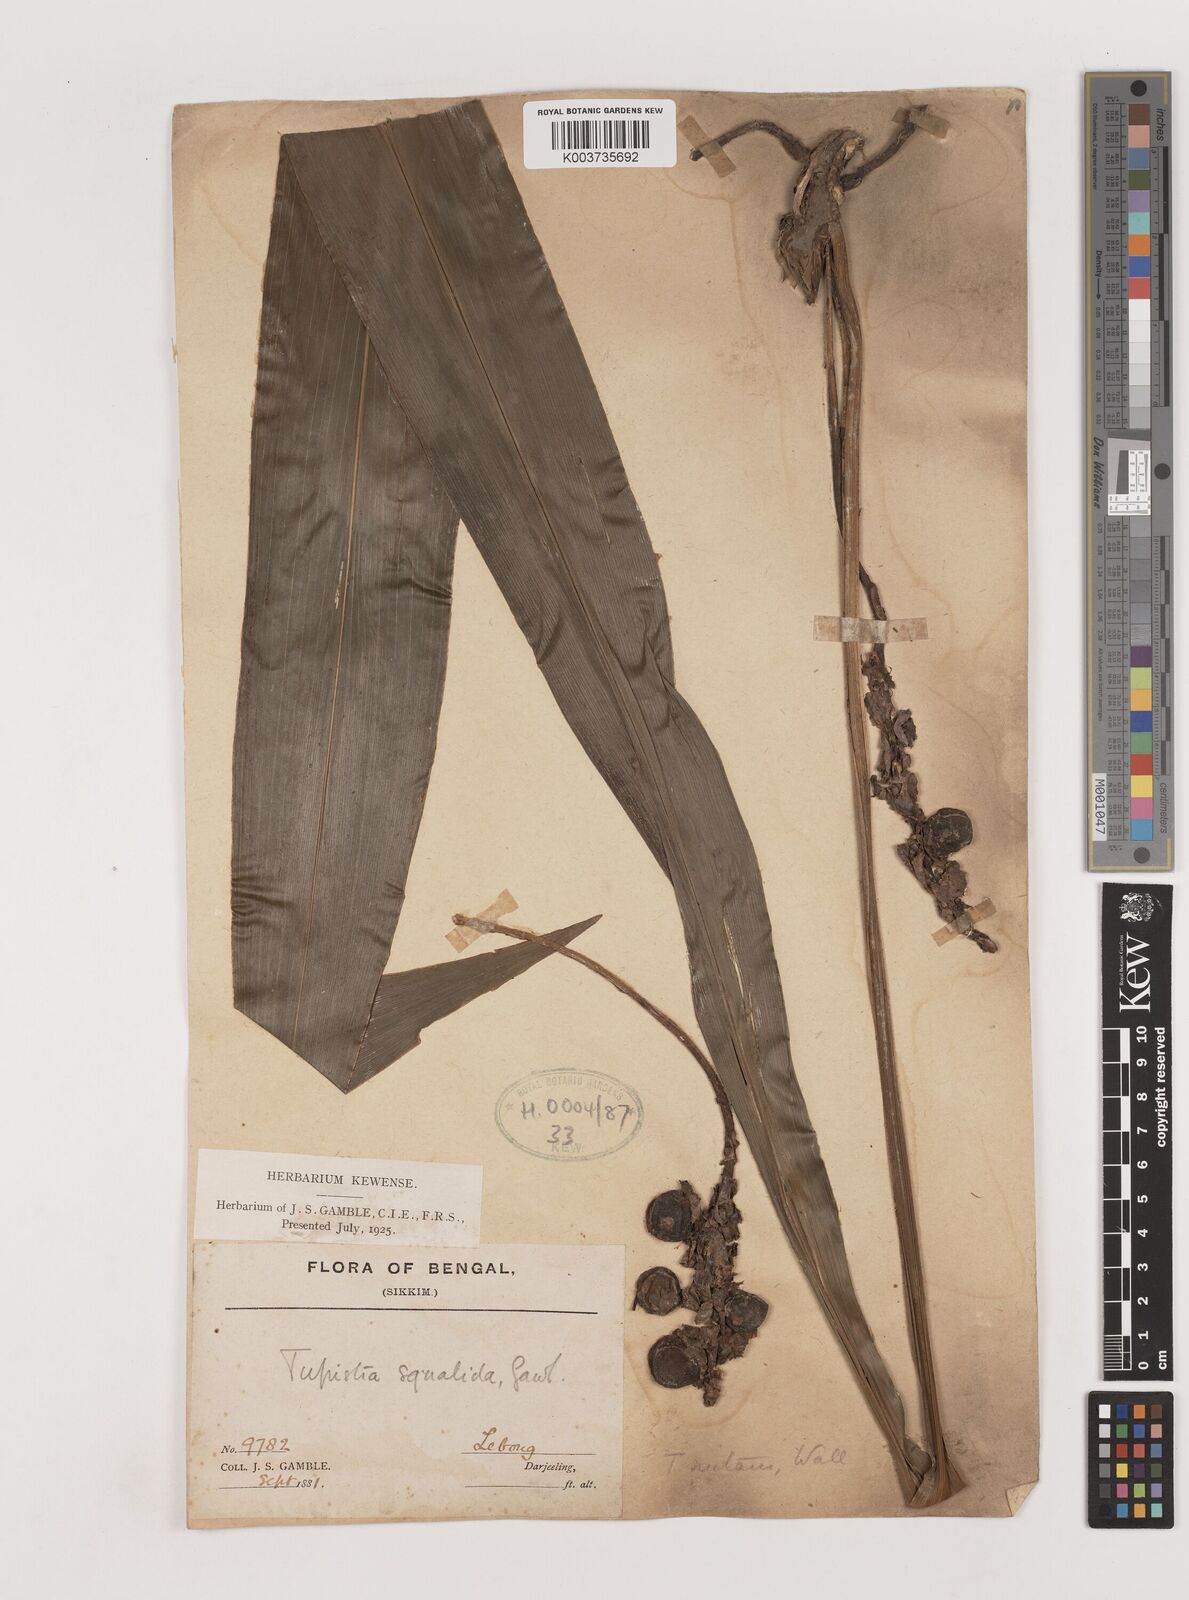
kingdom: Plantae
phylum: Tracheophyta
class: Liliopsida
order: Asparagales
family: Asparagaceae
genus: Tupistra
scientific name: Tupistra nutans
